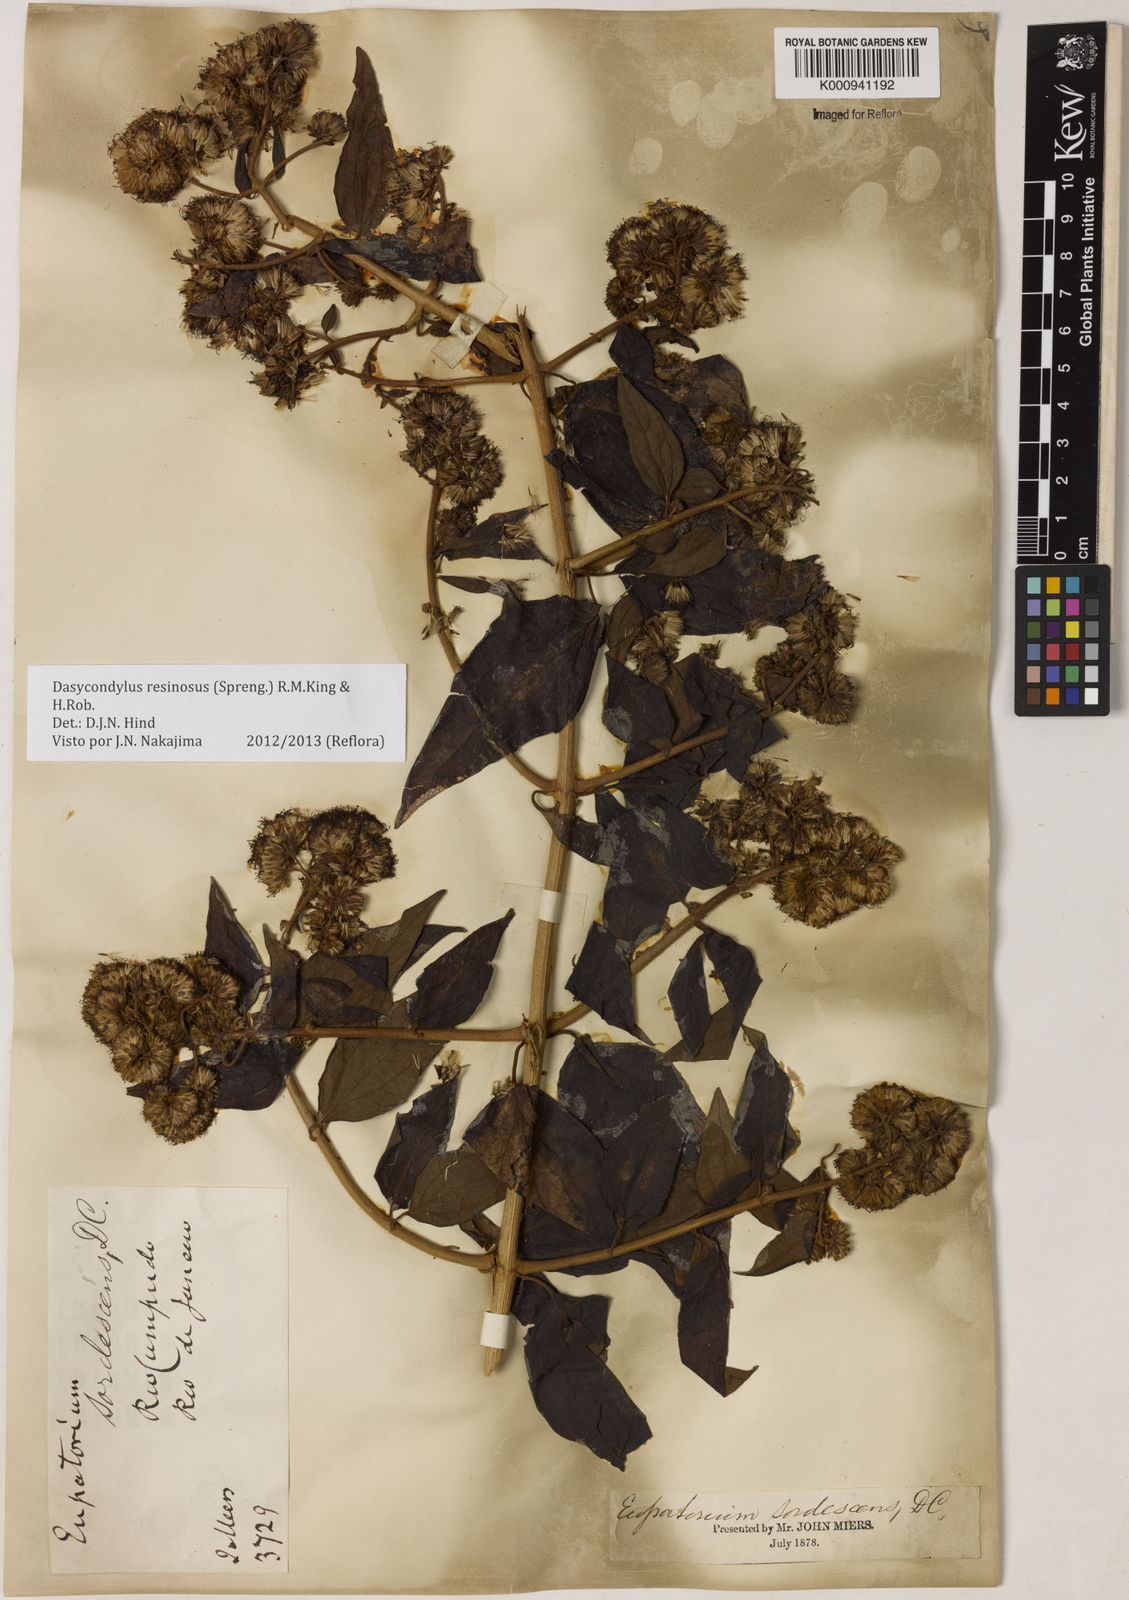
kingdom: Plantae
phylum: Tracheophyta
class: Magnoliopsida
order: Asterales
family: Asteraceae
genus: Dasycondylus
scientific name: Dasycondylus resinosus
